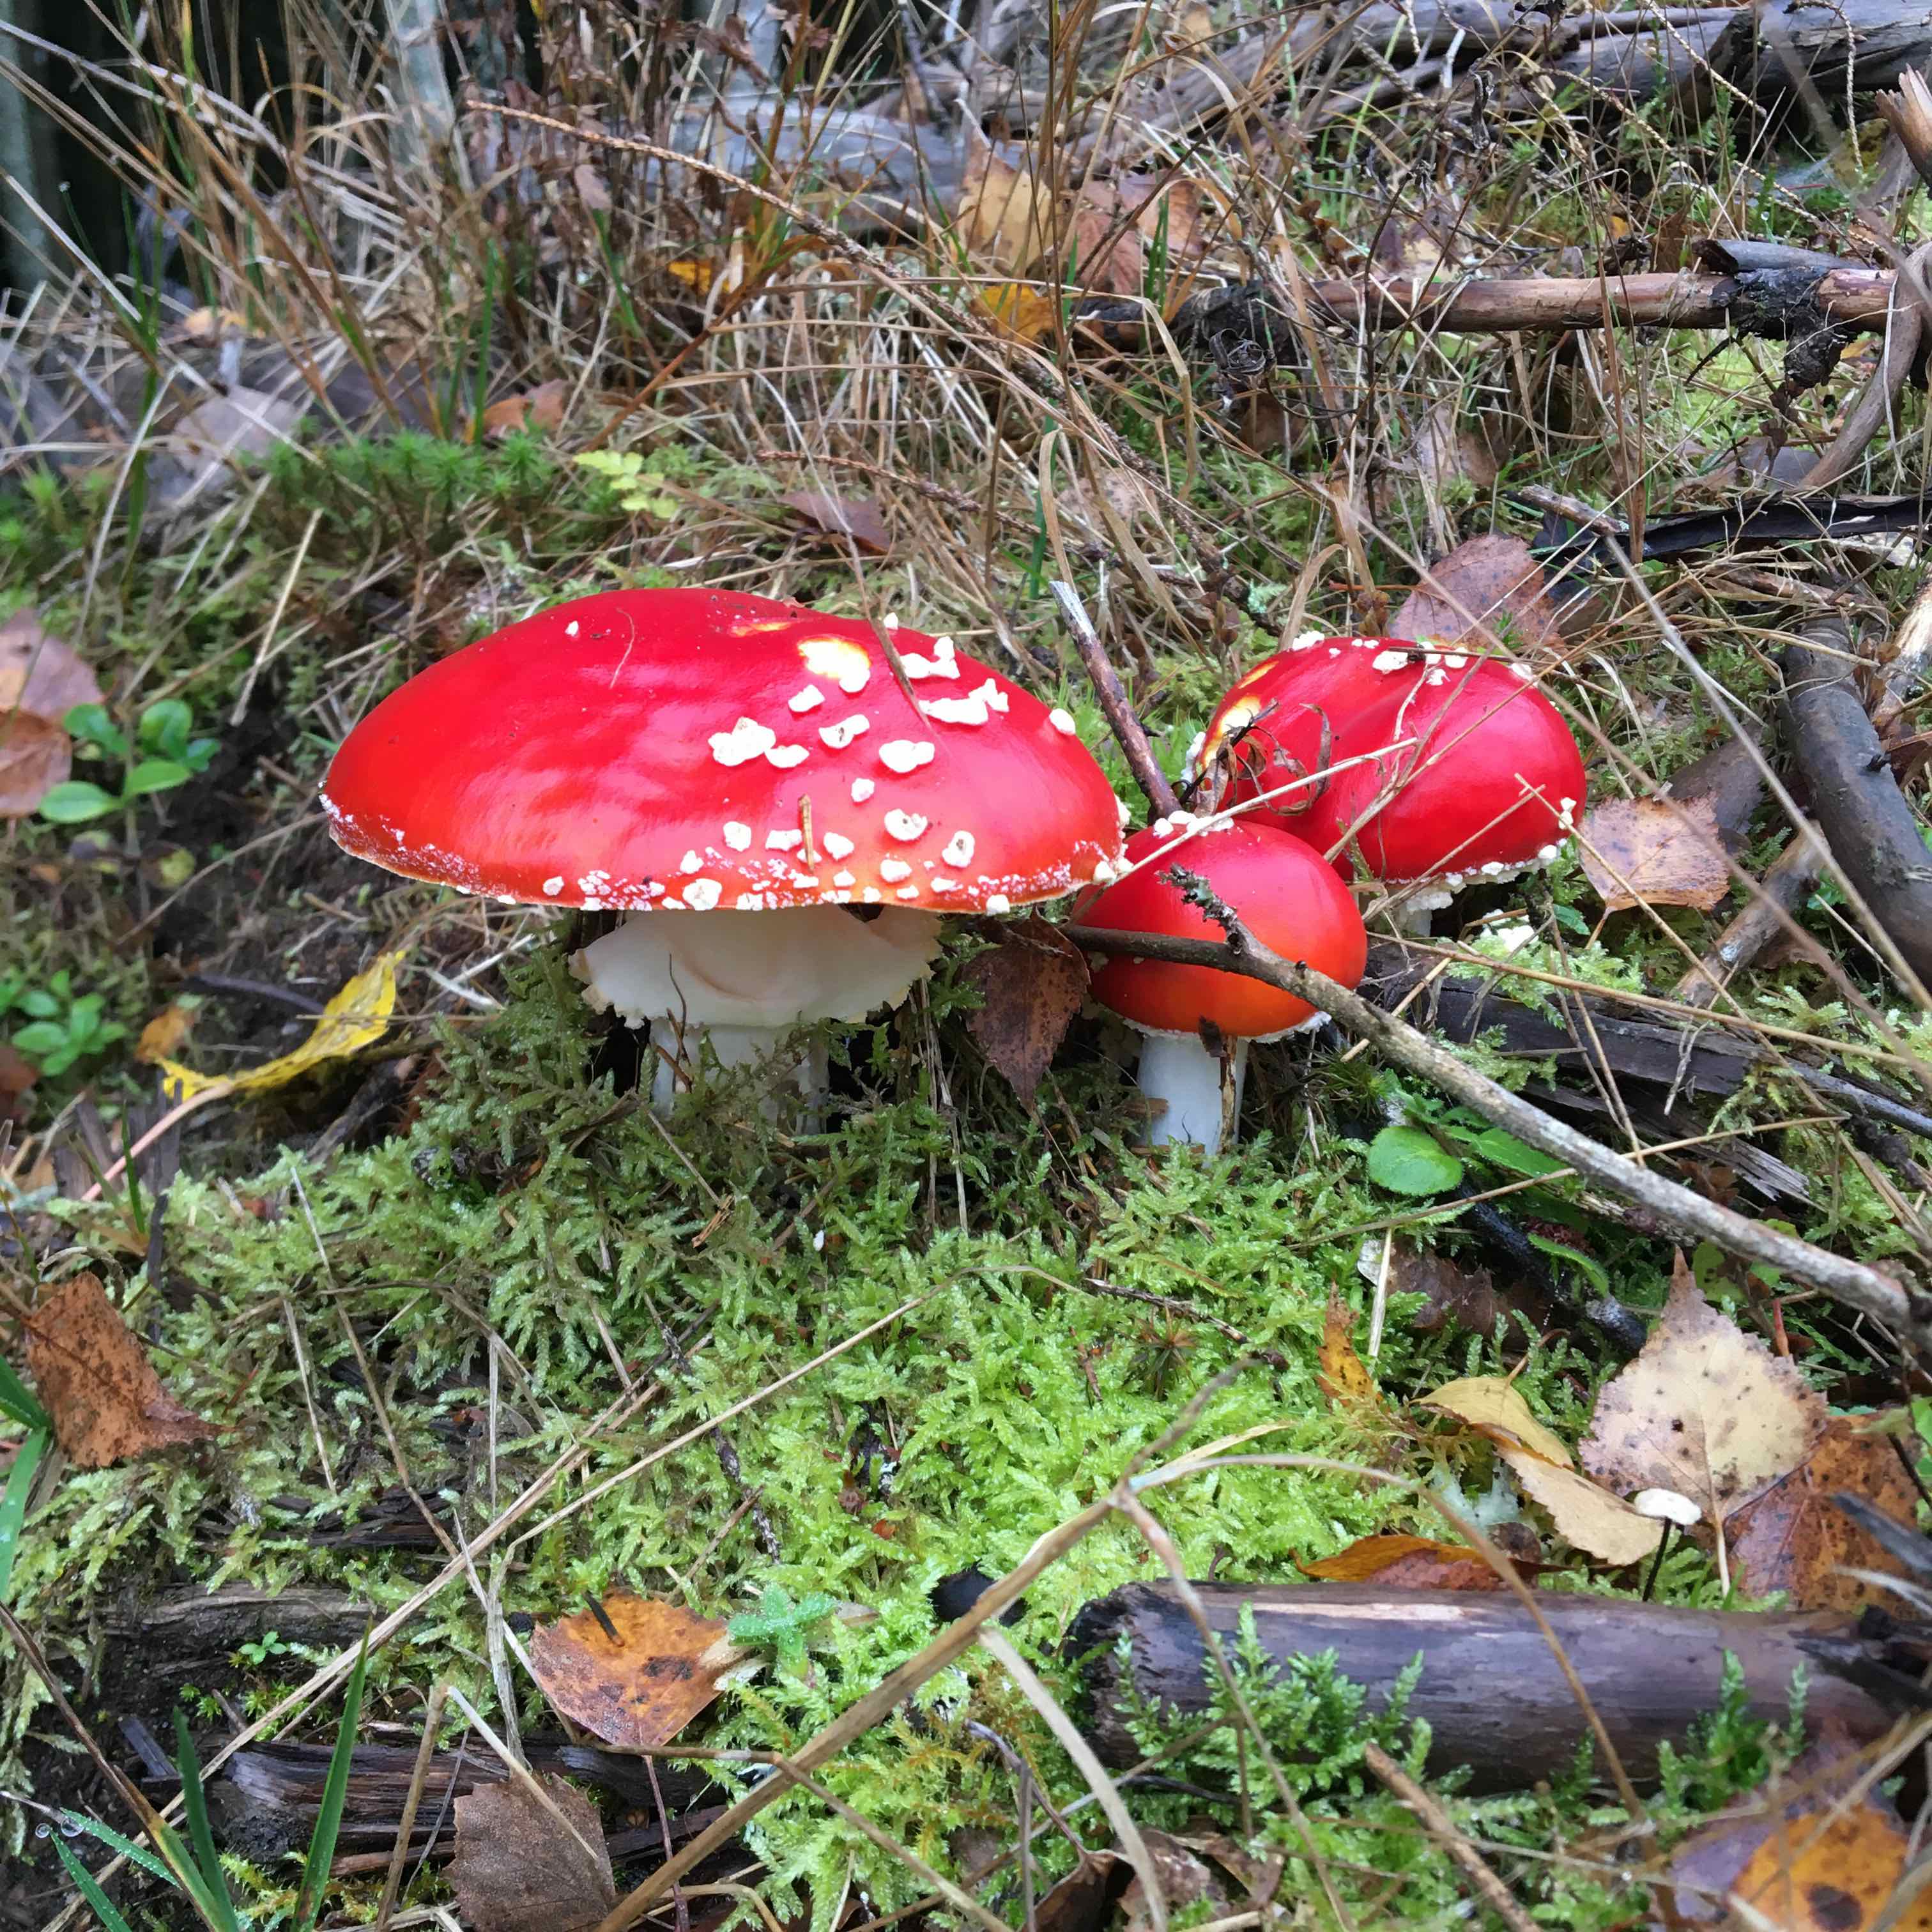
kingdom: Fungi
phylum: Basidiomycota
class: Agaricomycetes
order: Agaricales
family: Amanitaceae
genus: Amanita
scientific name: Amanita muscaria
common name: rød fluesvamp
